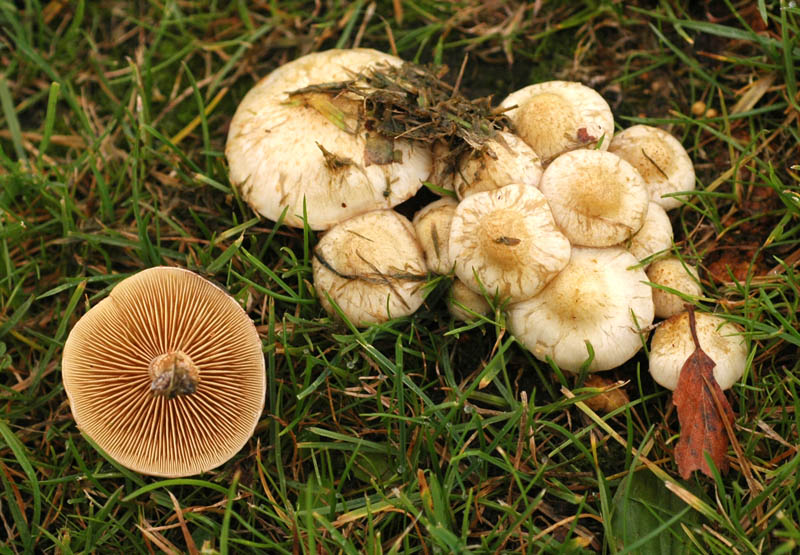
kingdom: Fungi
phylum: Basidiomycota
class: Agaricomycetes
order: Agaricales
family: Strophariaceae
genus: Pholiota
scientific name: Pholiota gummosa
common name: grøngul skælhat
